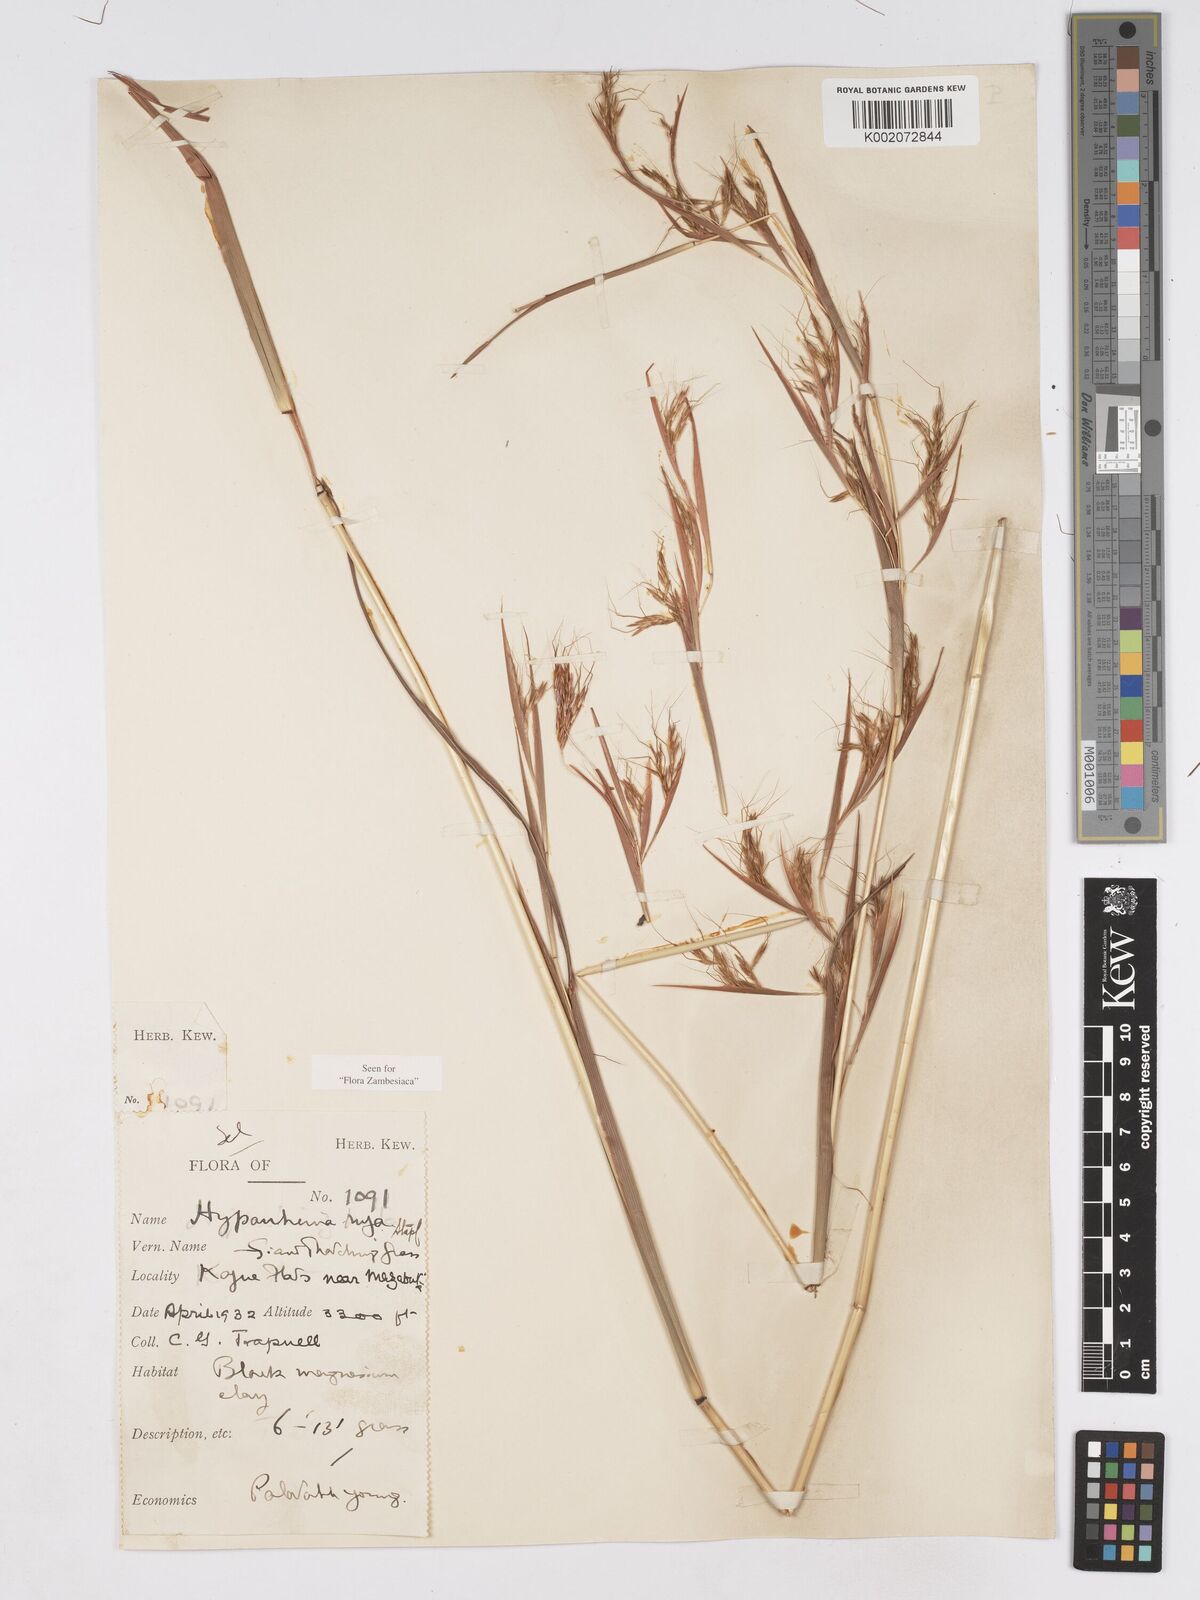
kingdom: Plantae
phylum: Tracheophyta
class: Liliopsida
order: Poales
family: Poaceae
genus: Hyparrhenia
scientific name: Hyparrhenia rufa
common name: Jaraguagrass
